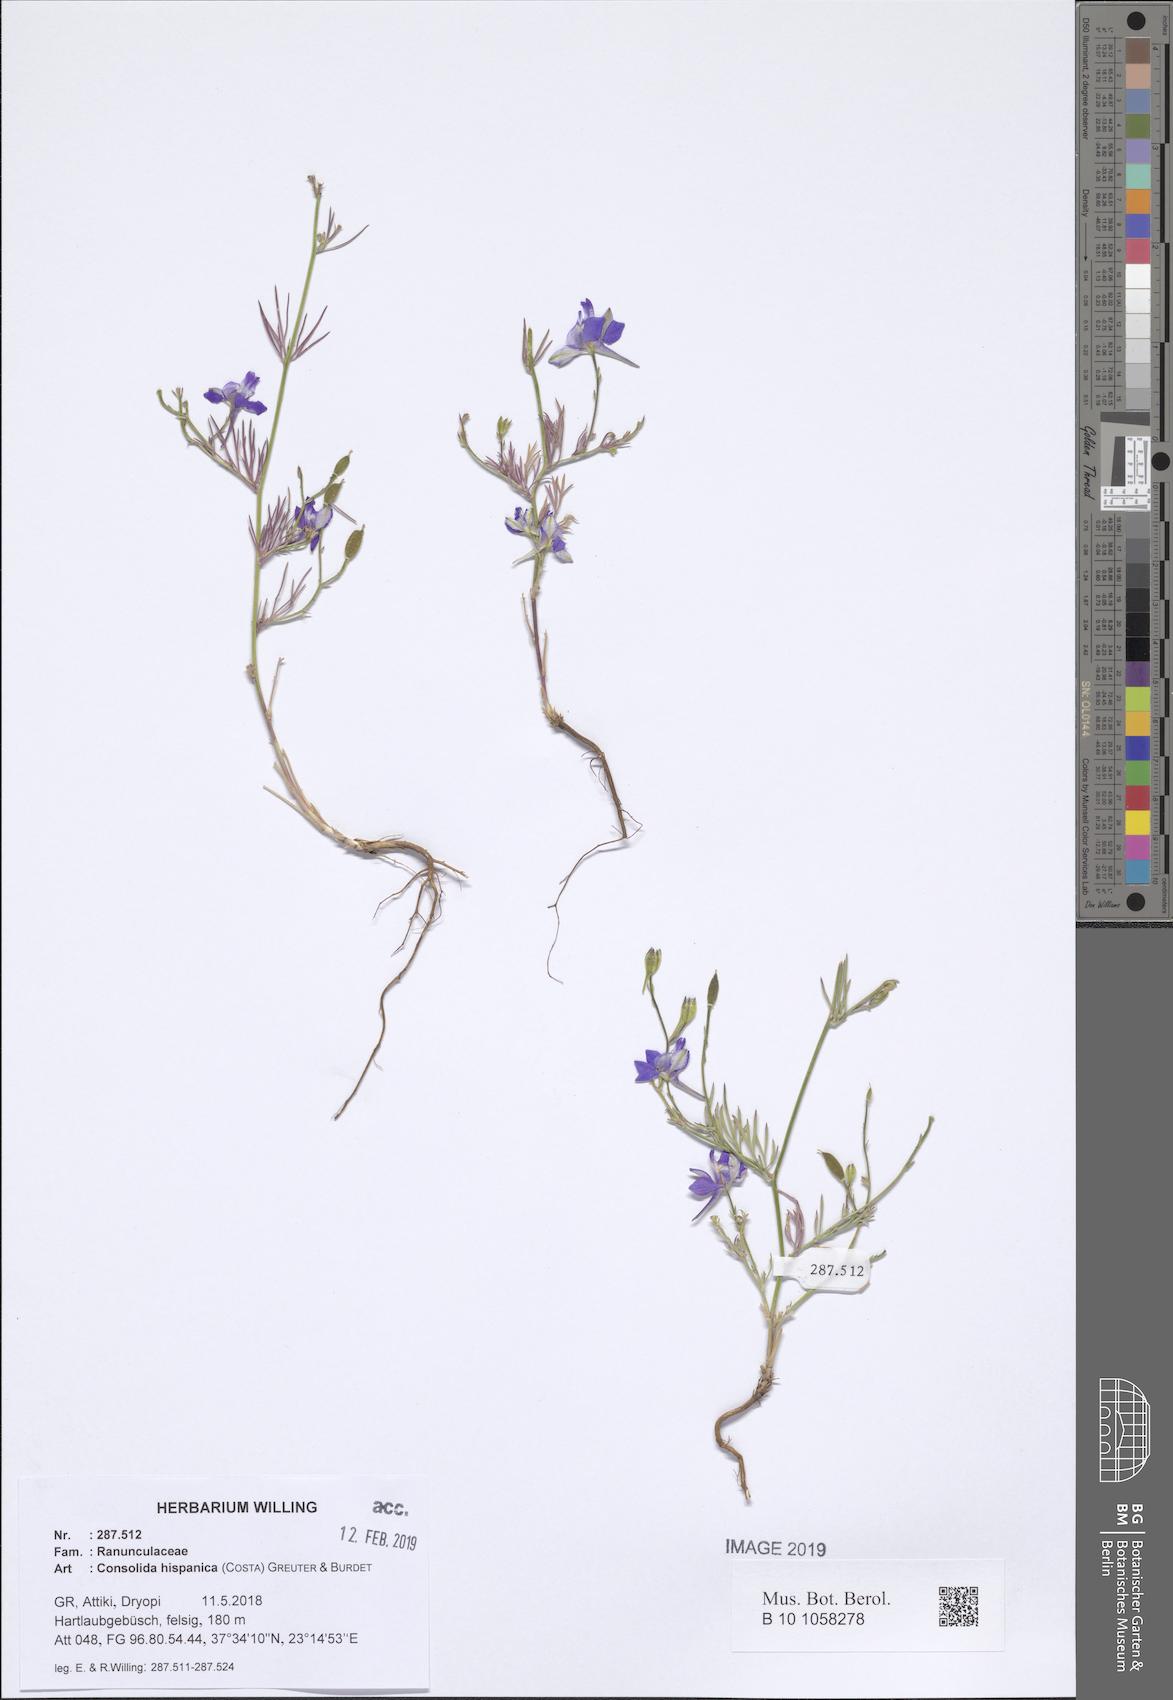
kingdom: Plantae
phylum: Tracheophyta
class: Magnoliopsida
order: Ranunculales
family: Ranunculaceae
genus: Delphinium
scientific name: Delphinium hispanicum
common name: Oriental knight's-spur
